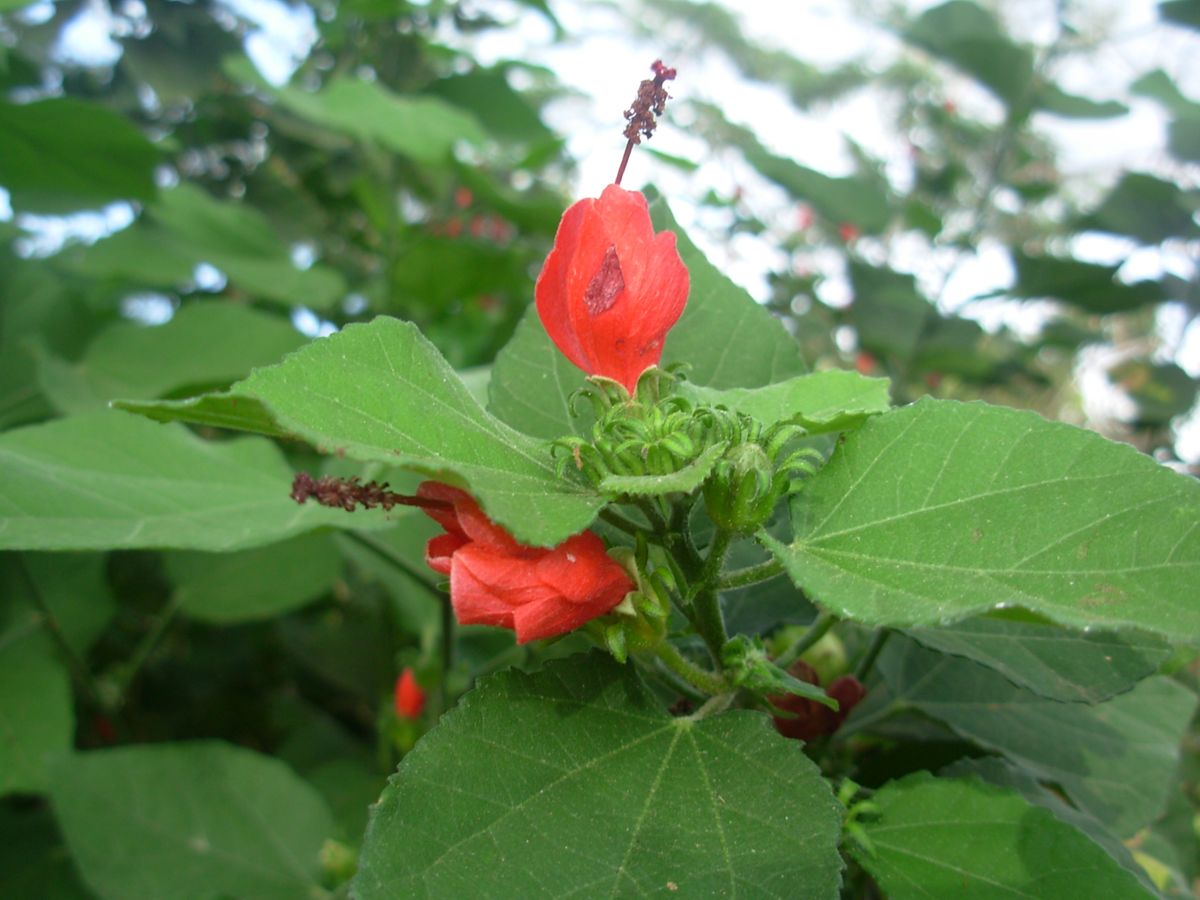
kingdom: Plantae
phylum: Tracheophyta
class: Magnoliopsida
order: Malvales
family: Malvaceae
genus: Malvaviscus
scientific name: Malvaviscus arboreus
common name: Wax mallow
